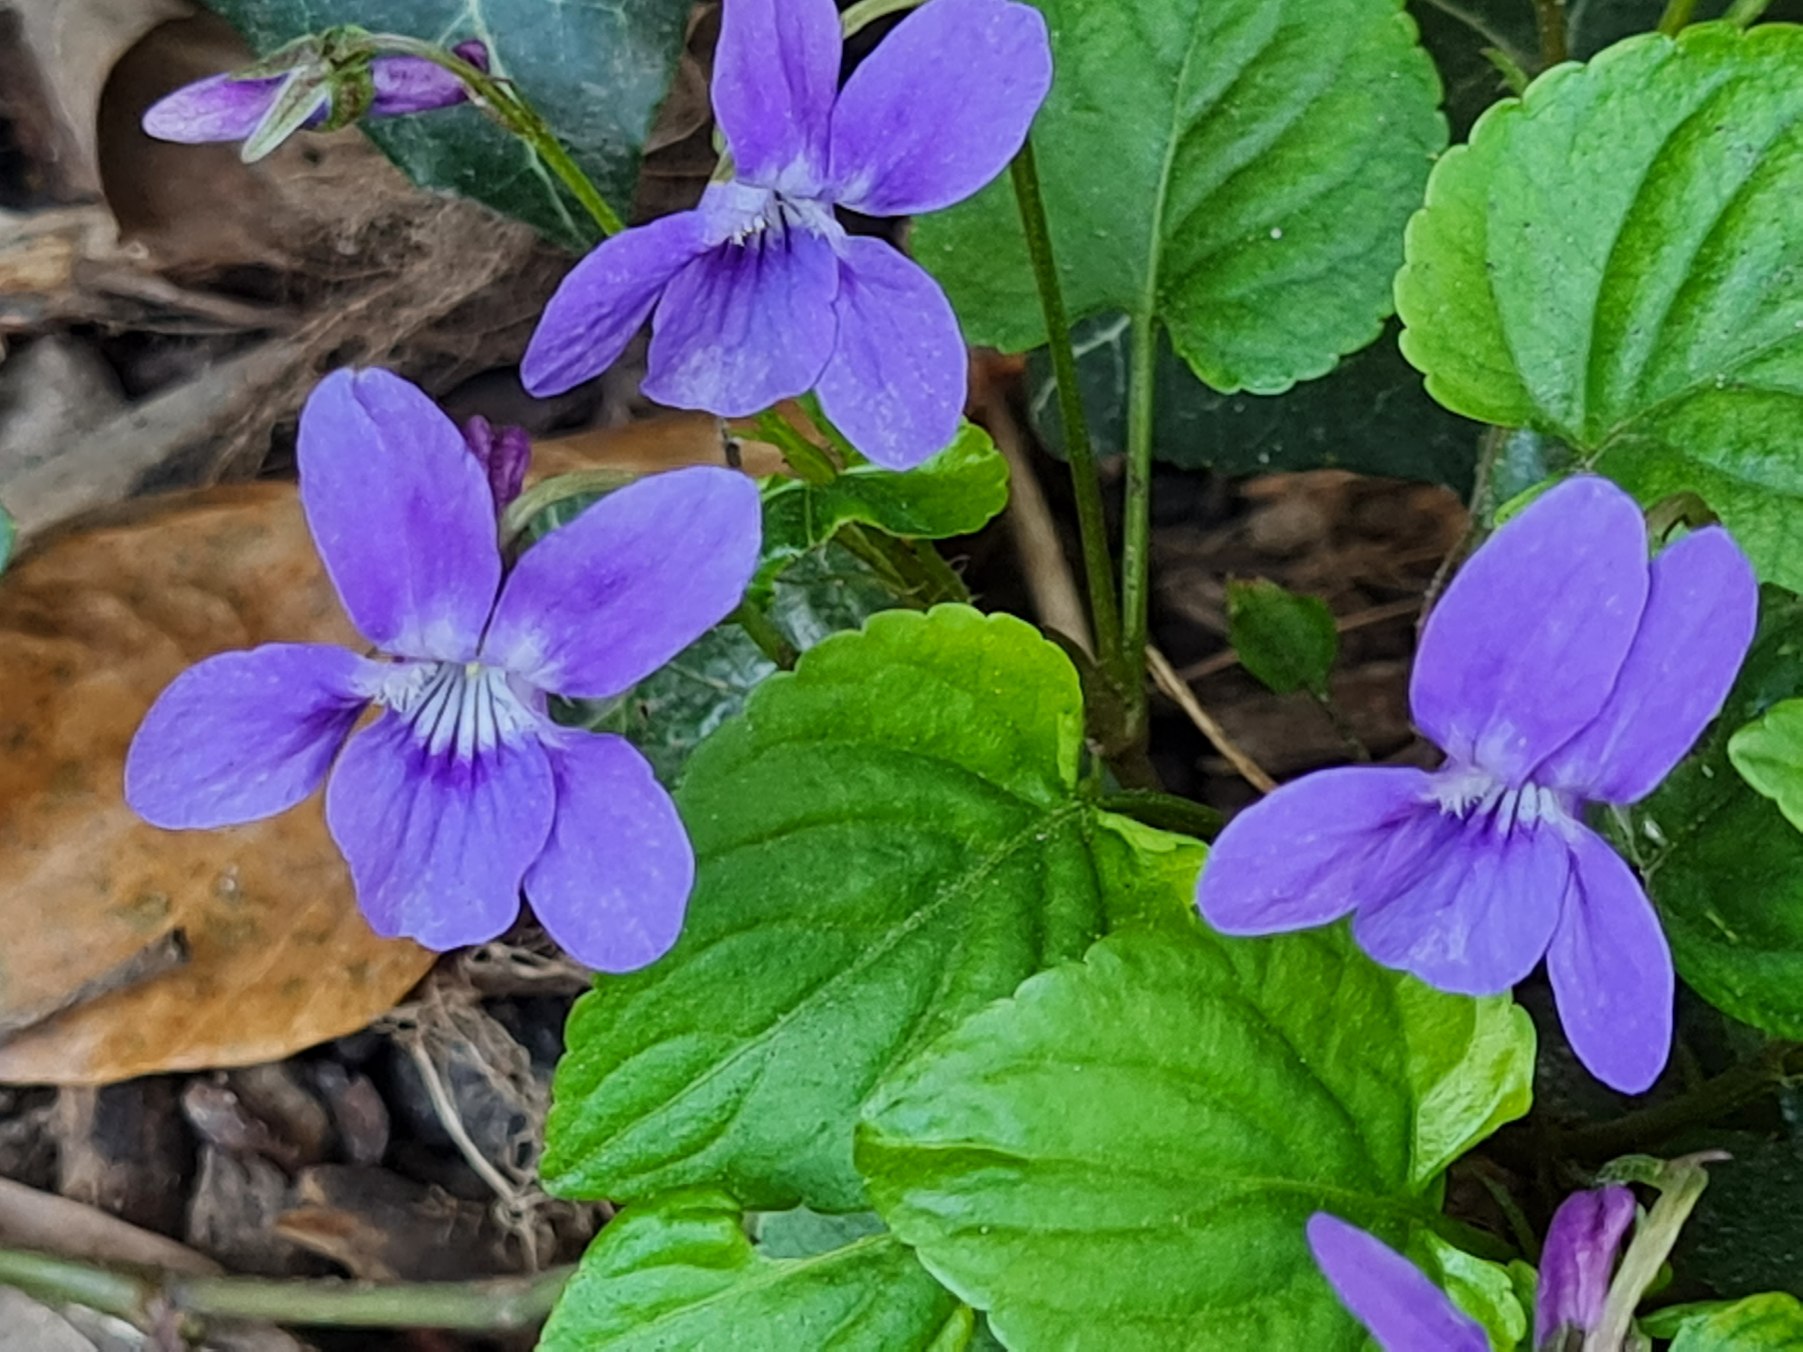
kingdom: Plantae
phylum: Tracheophyta
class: Magnoliopsida
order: Malpighiales
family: Violaceae
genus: Viola
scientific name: Viola reichenbachiana
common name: Skov-viol
